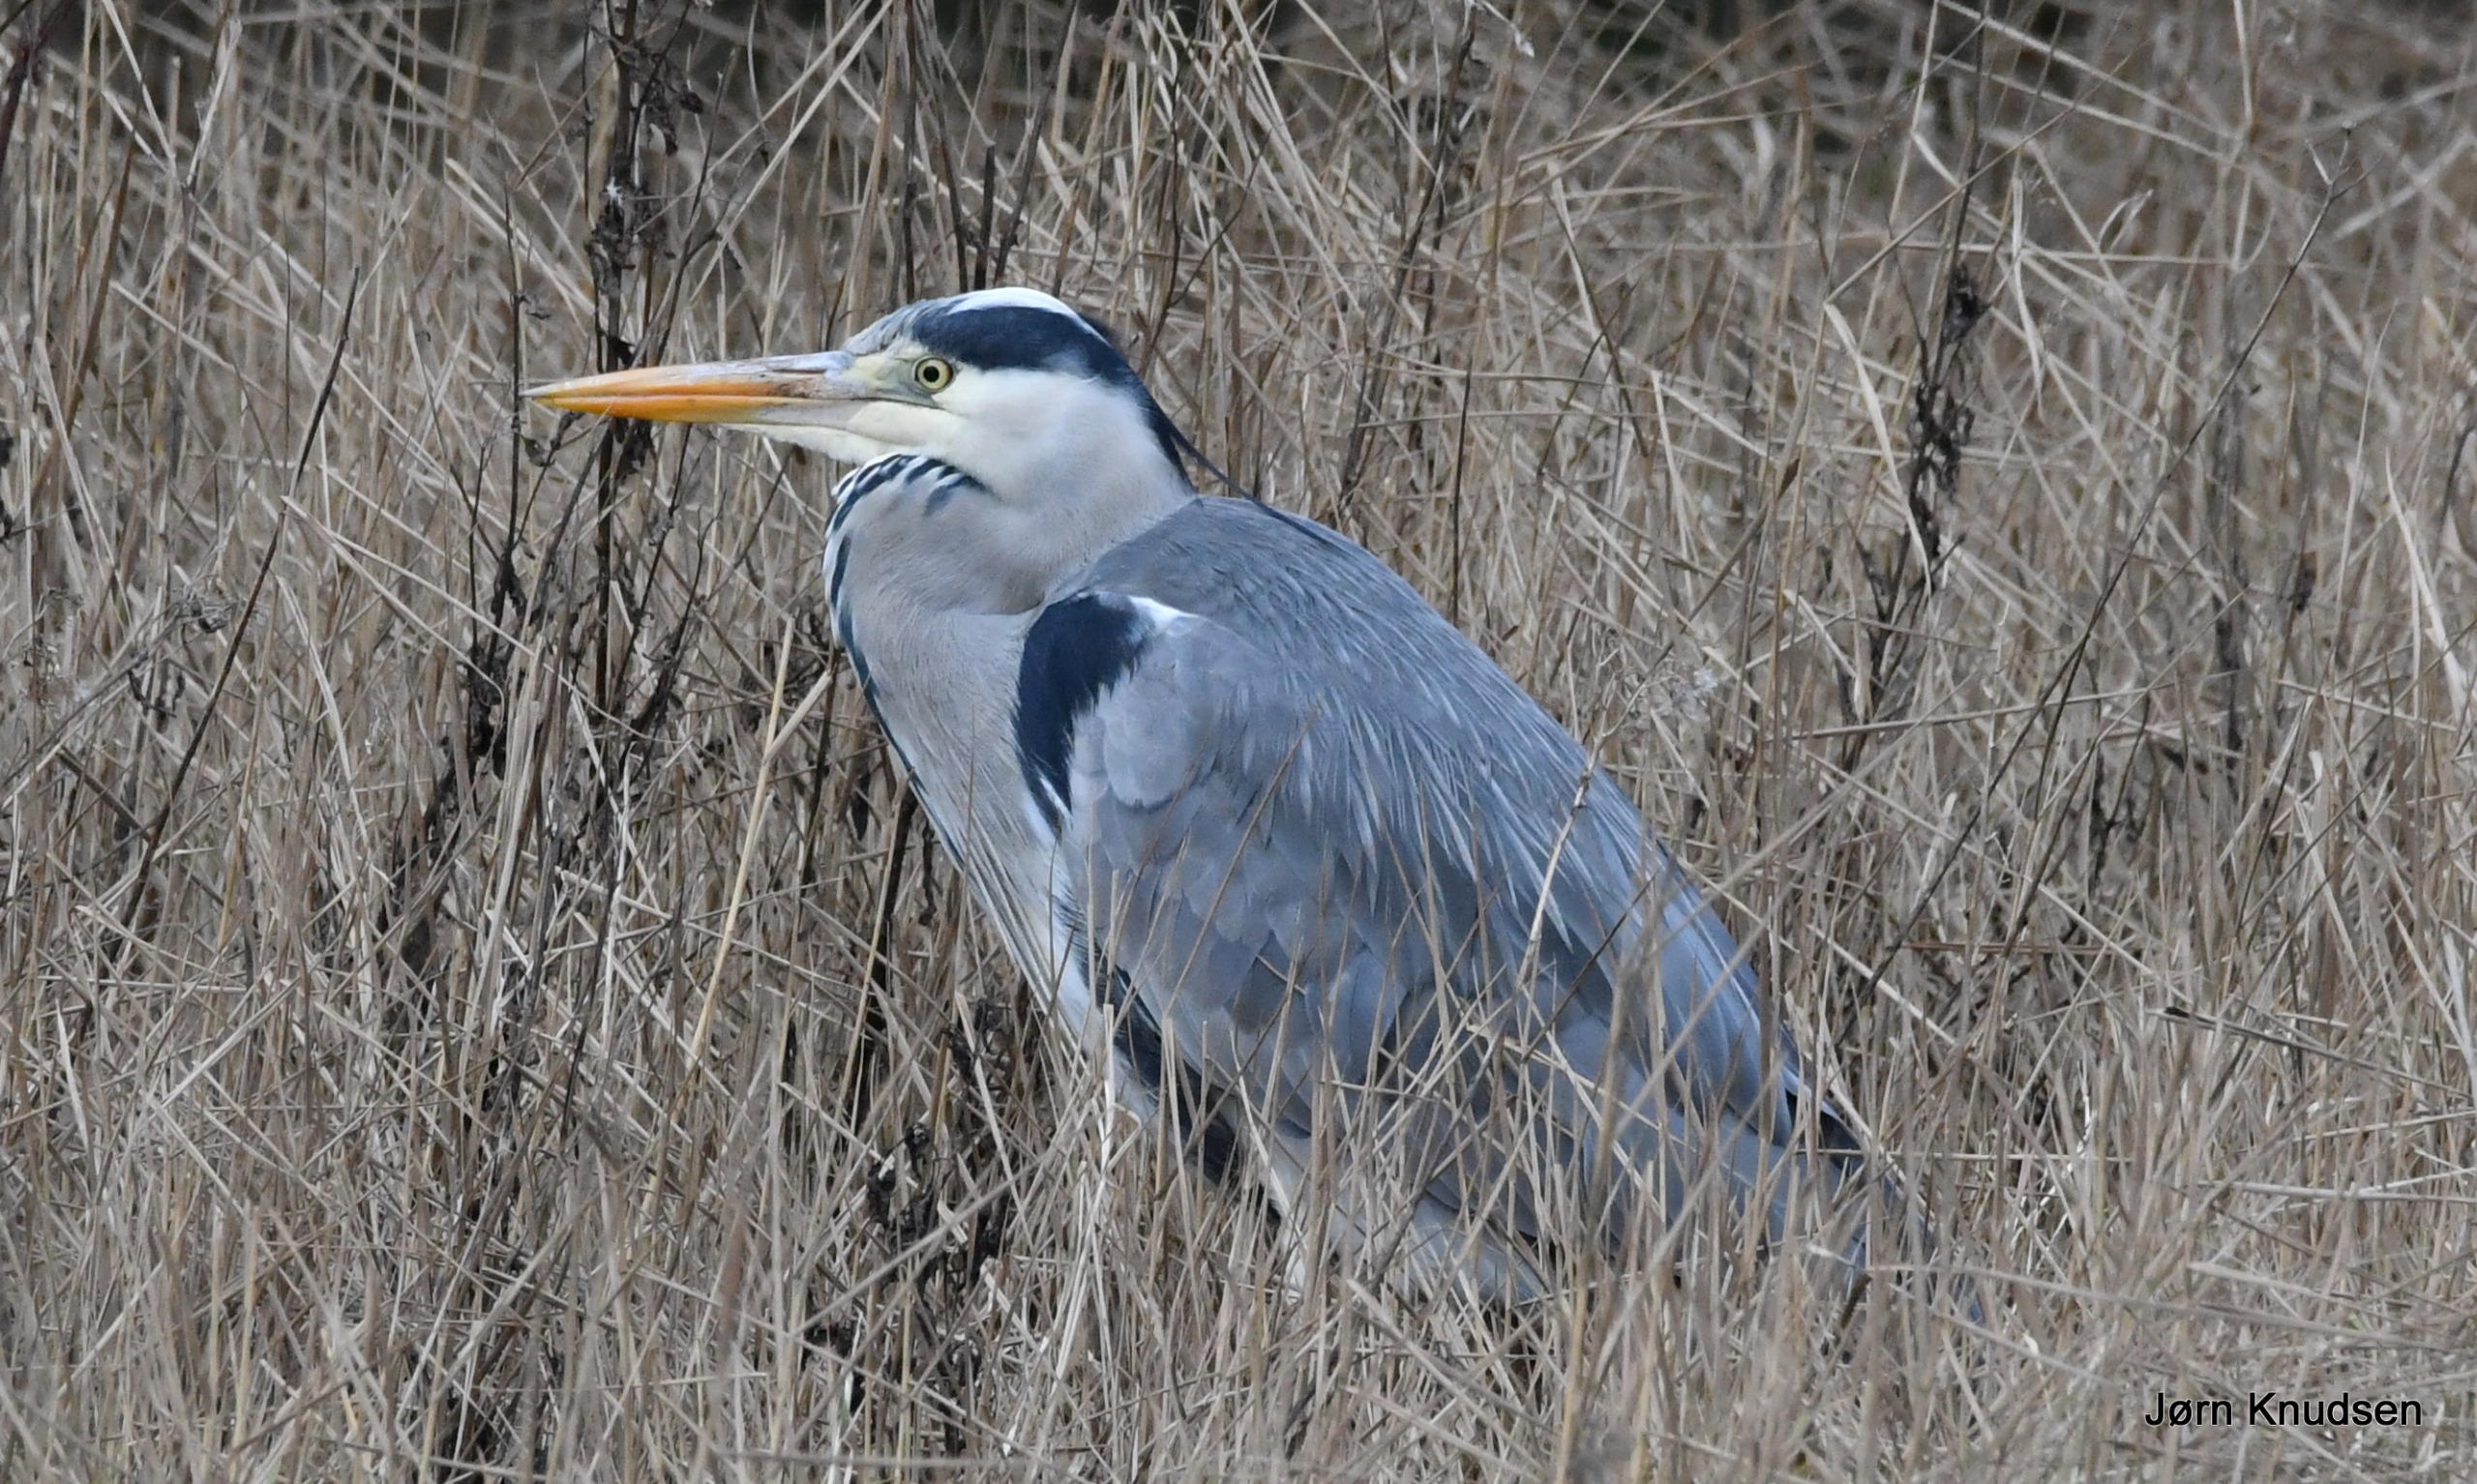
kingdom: Animalia
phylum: Chordata
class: Aves
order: Pelecaniformes
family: Ardeidae
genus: Ardea
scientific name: Ardea cinerea
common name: Fiskehejre
